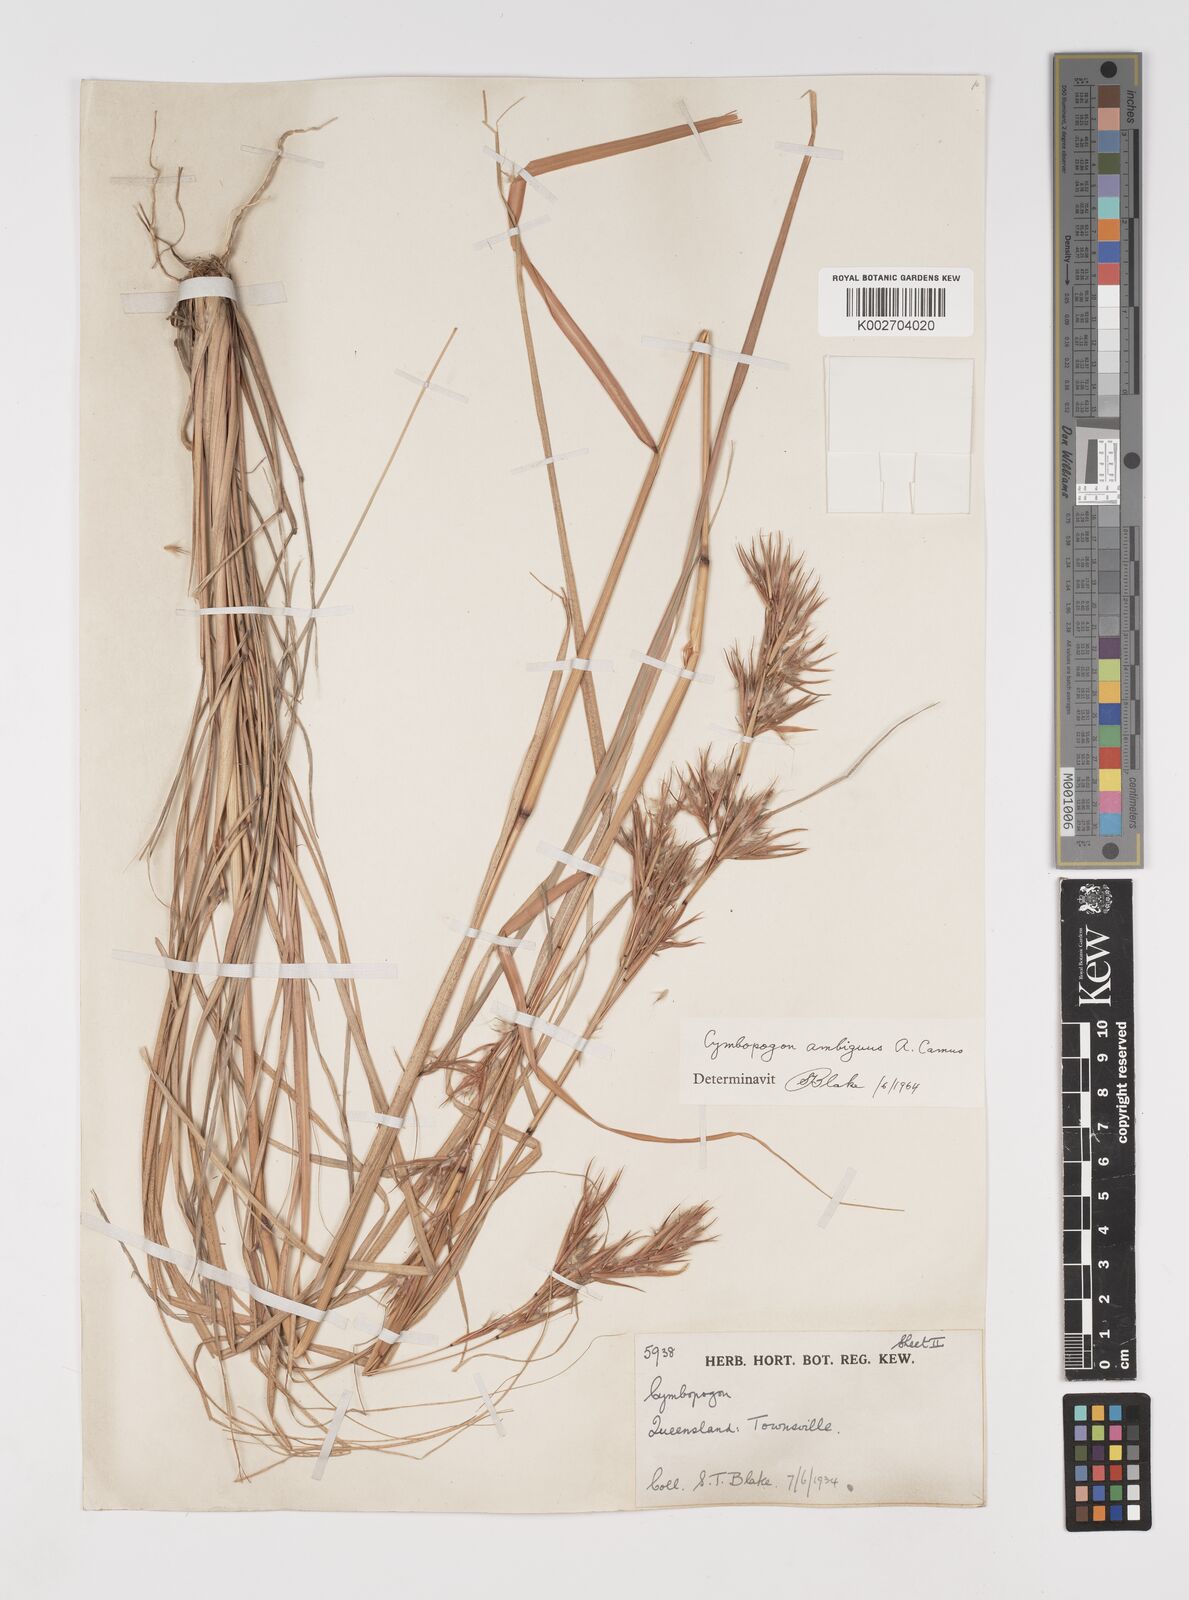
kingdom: Plantae
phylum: Tracheophyta
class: Liliopsida
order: Poales
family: Poaceae
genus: Cymbopogon
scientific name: Cymbopogon ambiguus
